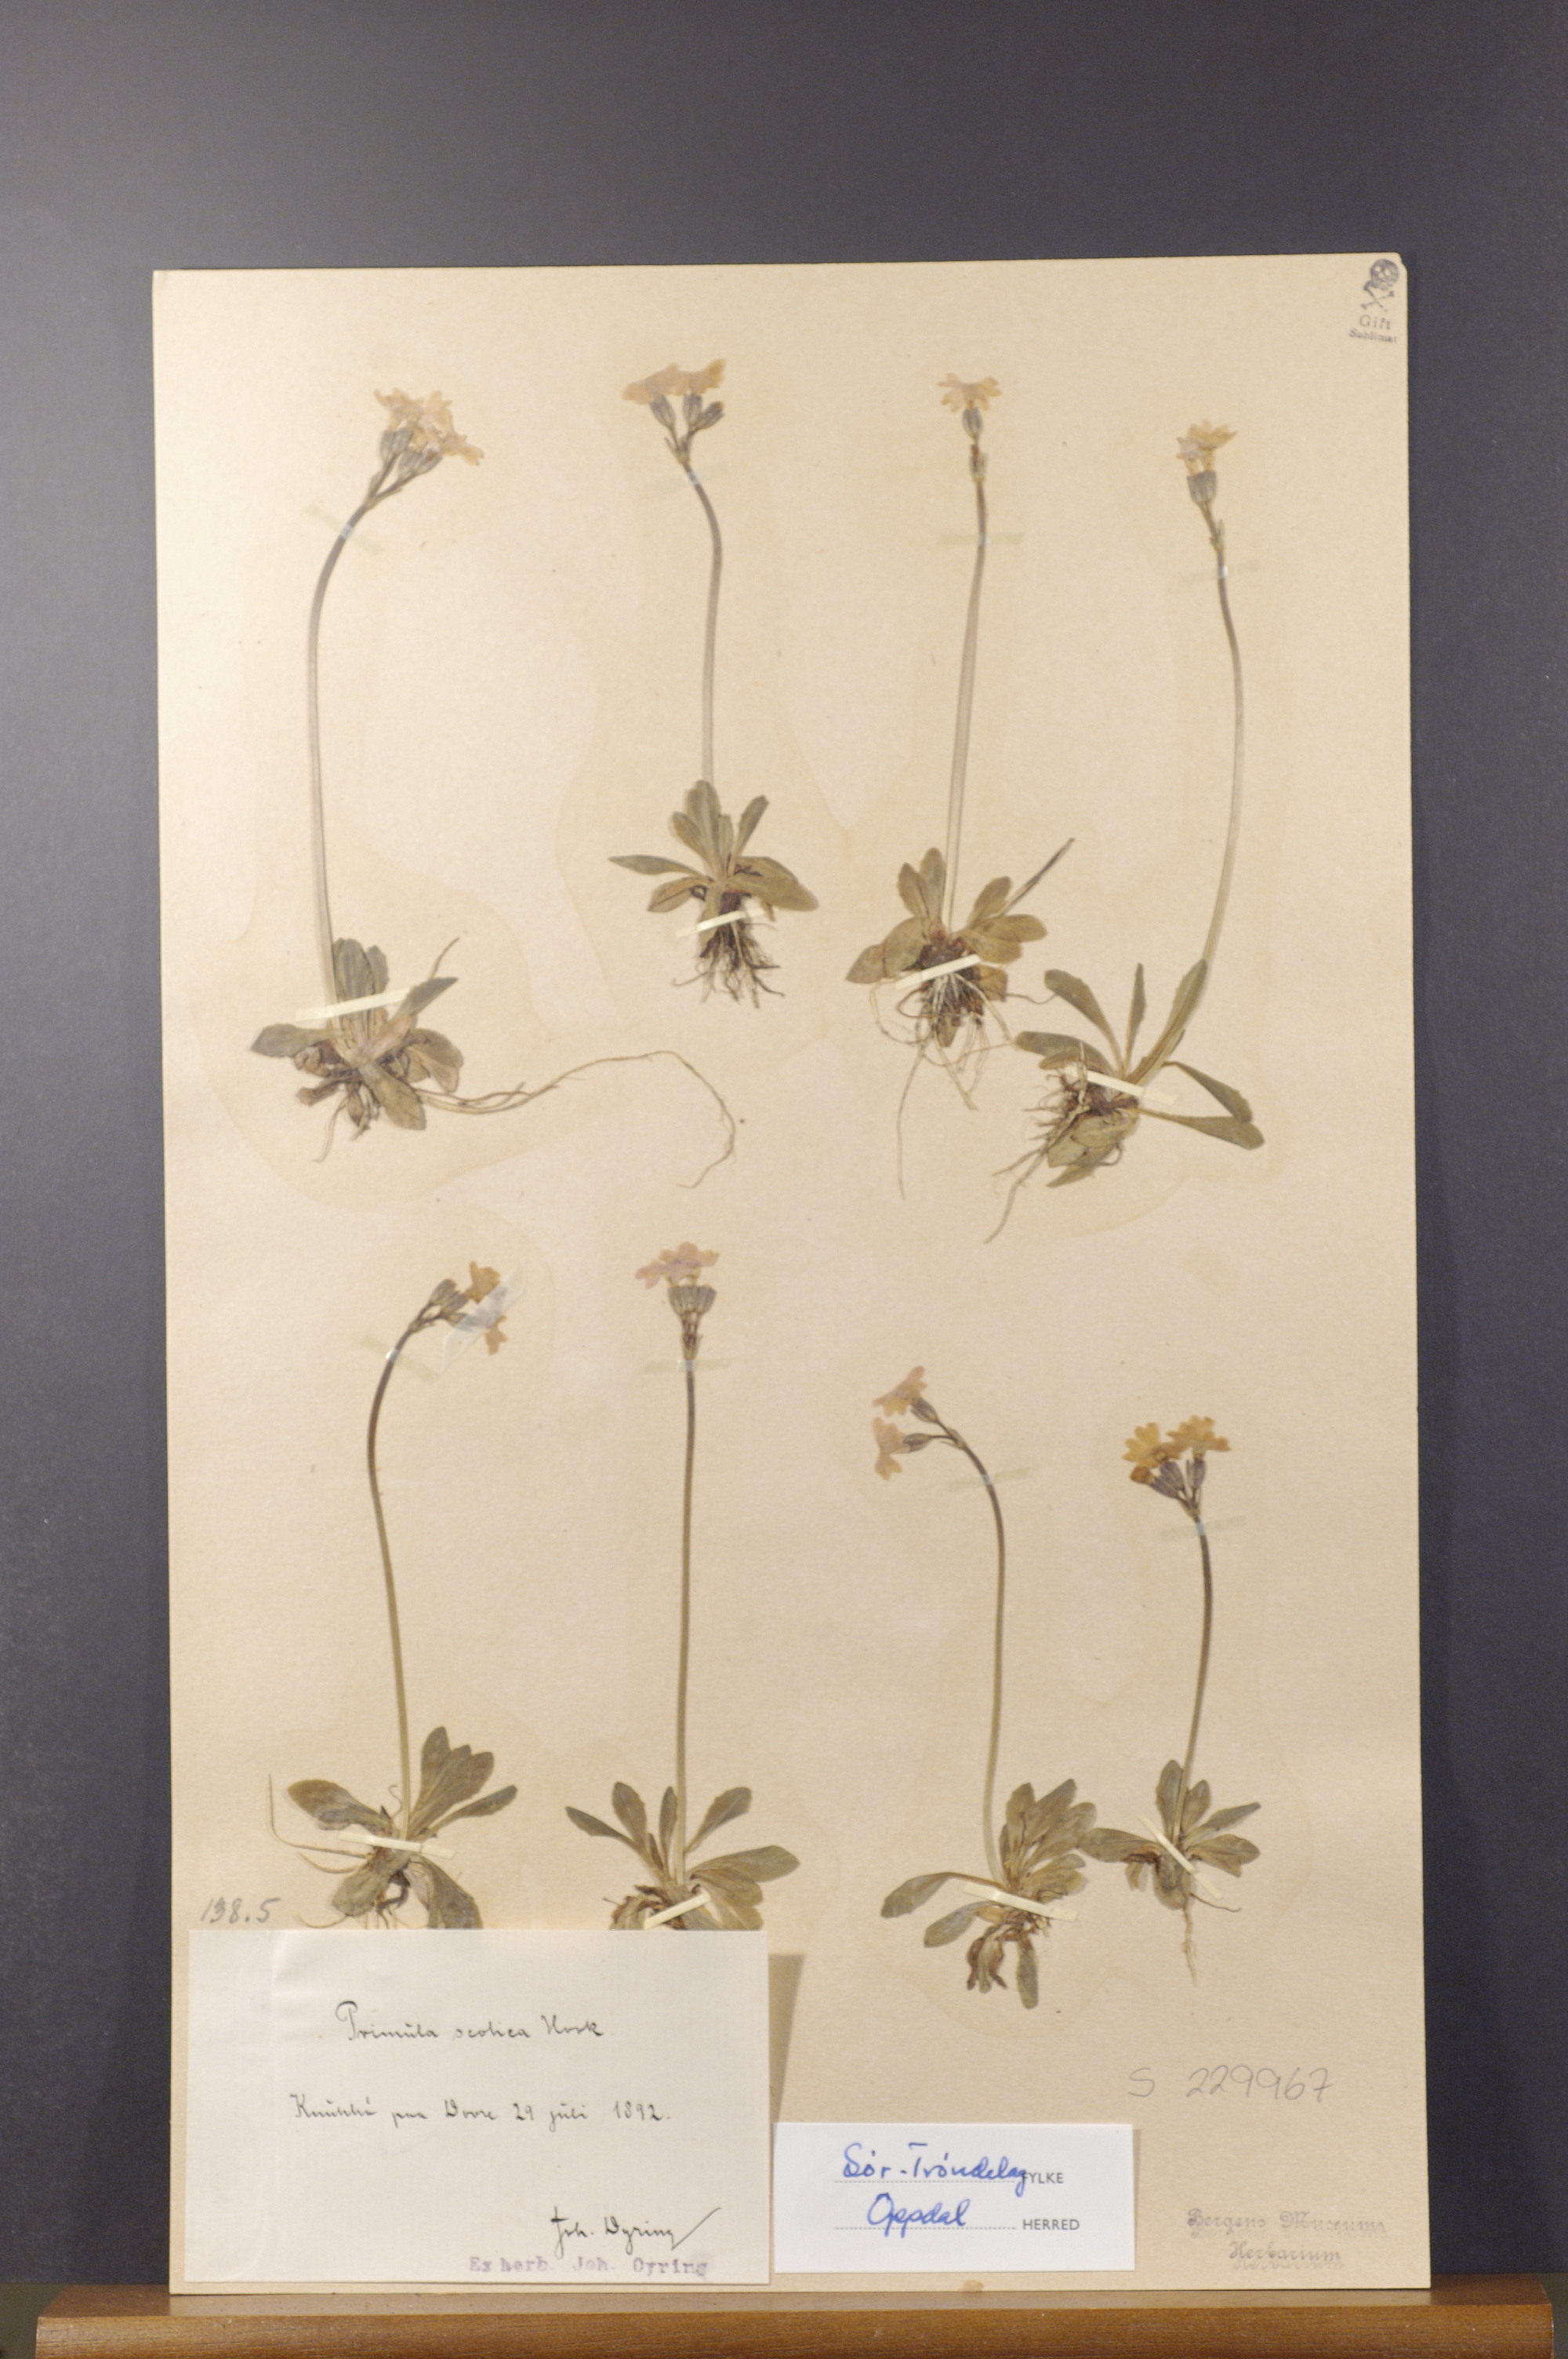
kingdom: Plantae
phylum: Tracheophyta
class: Magnoliopsida
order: Ericales
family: Primulaceae
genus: Primula
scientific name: Primula scotica
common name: Scottish primrose
